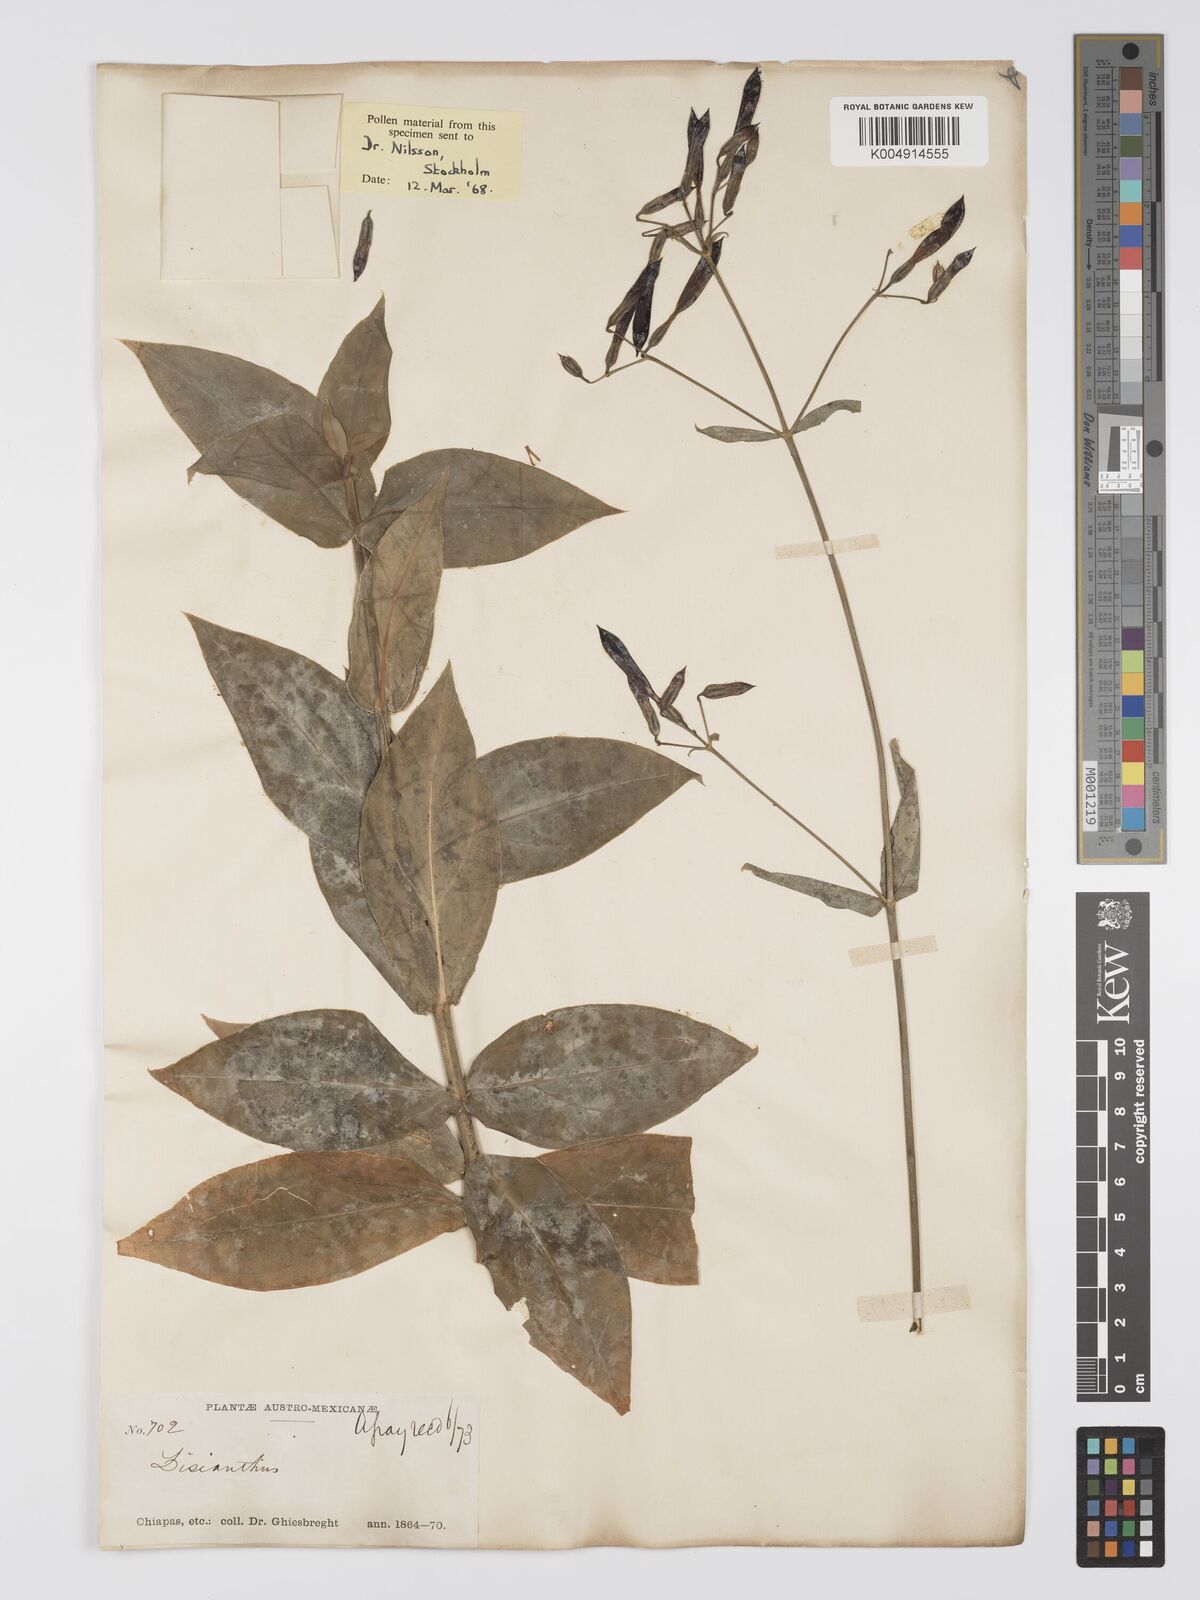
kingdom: Plantae
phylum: Tracheophyta
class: Magnoliopsida
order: Gentianales
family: Gentianaceae
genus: Lisianthus
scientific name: Lisianthus nigrescens
